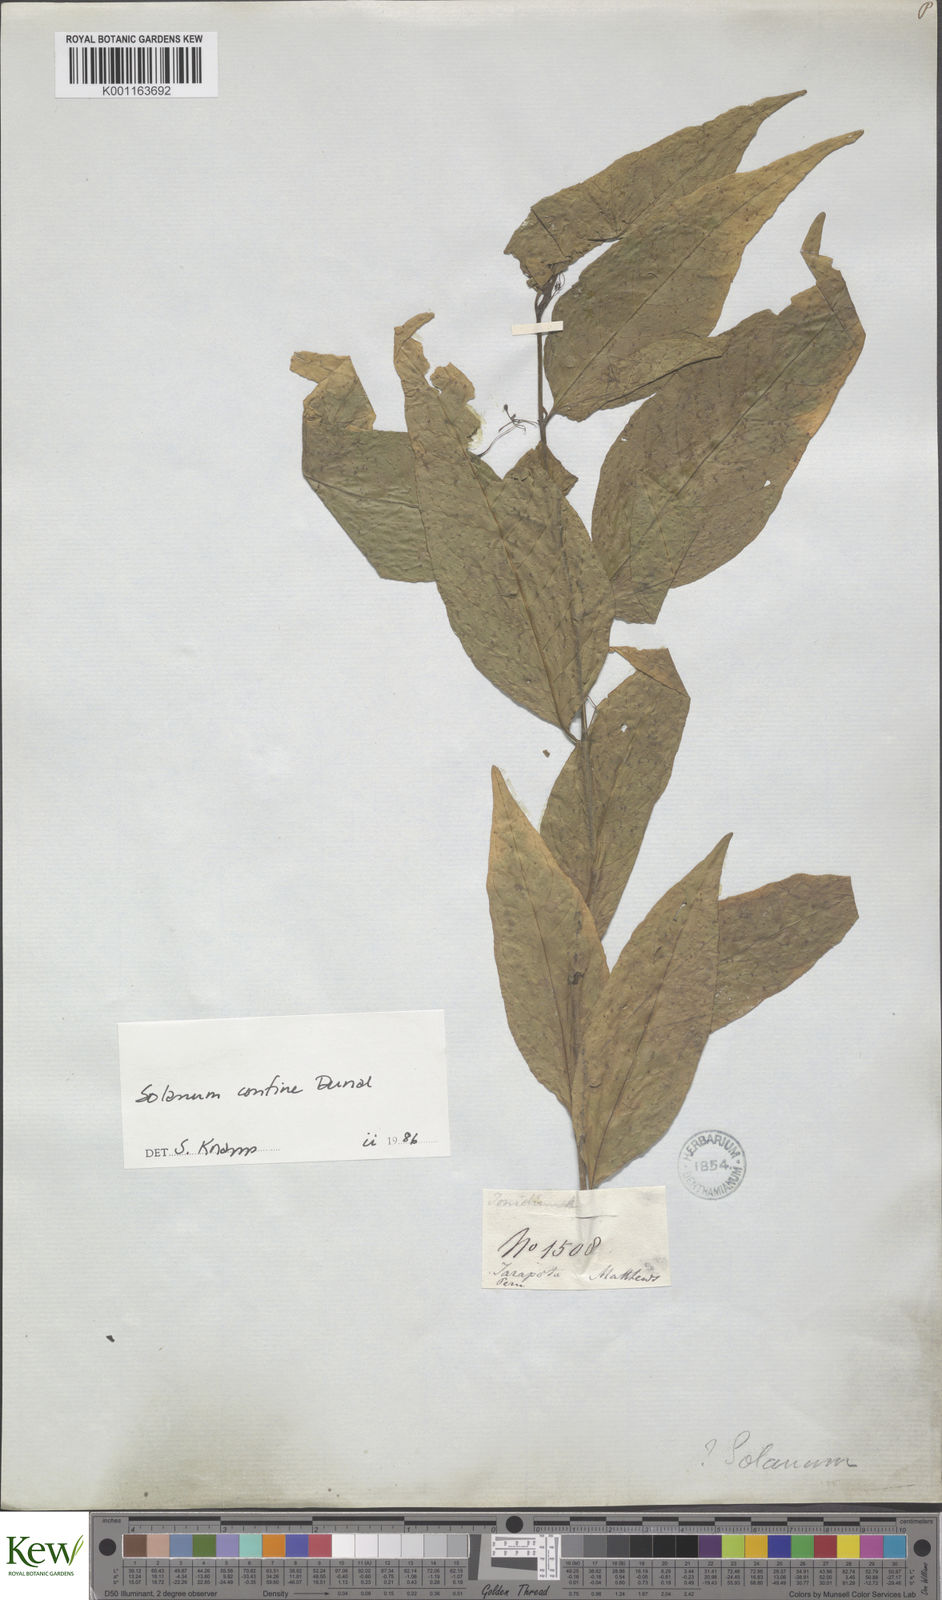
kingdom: Plantae
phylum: Tracheophyta
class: Magnoliopsida
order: Solanales
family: Solanaceae
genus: Solanum
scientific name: Solanum confine
